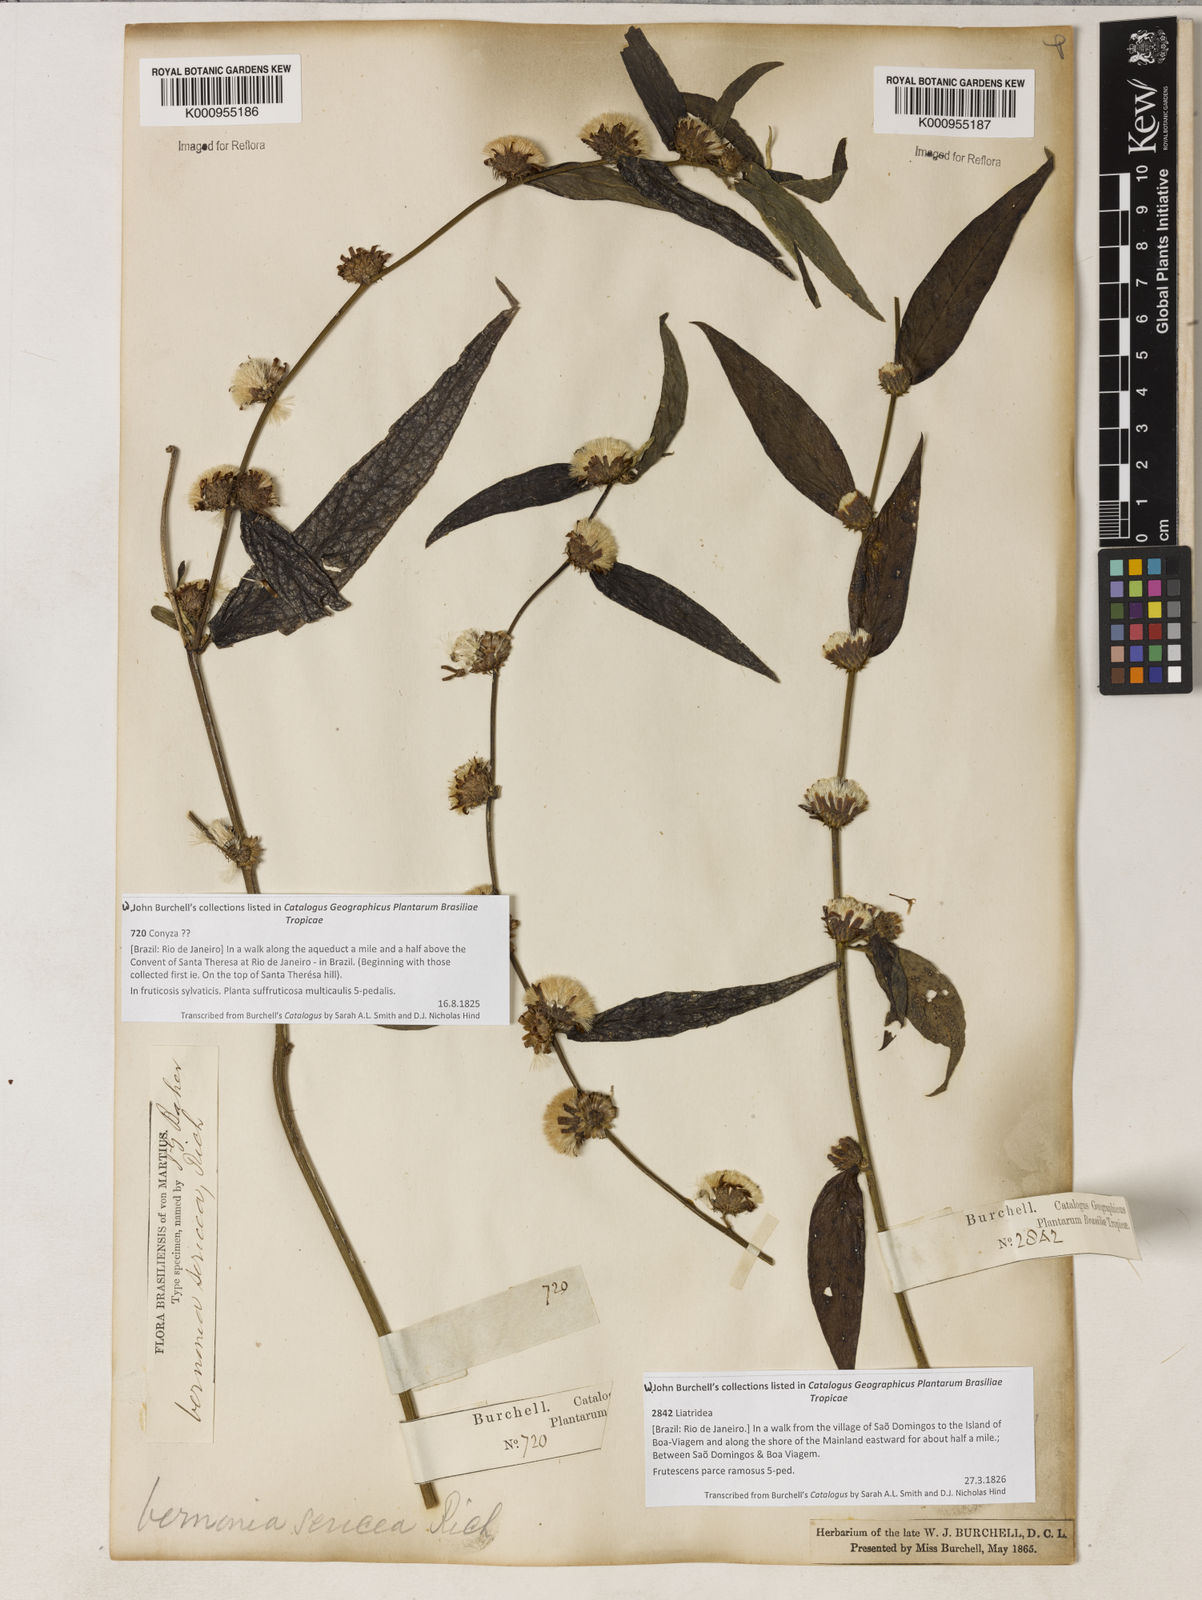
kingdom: Plantae
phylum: Tracheophyta
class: Magnoliopsida
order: Asterales
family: Asteraceae
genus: Lepidaploa
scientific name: Lepidaploa sericea
